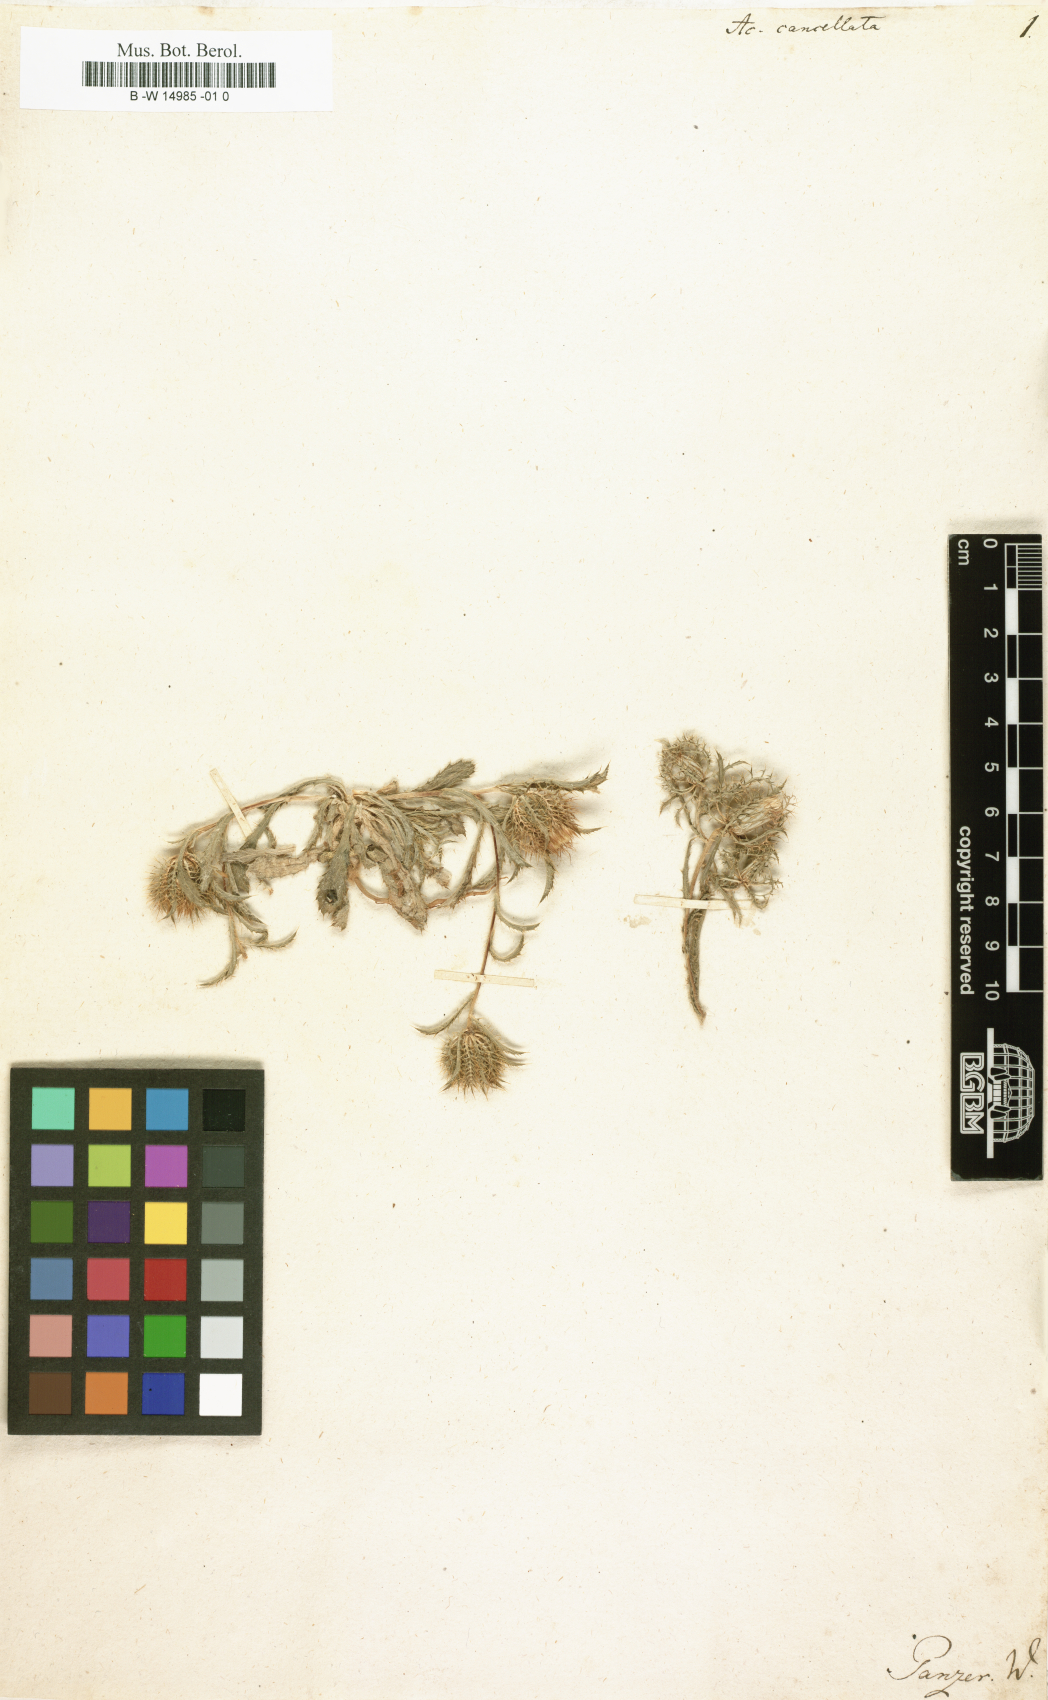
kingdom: Plantae
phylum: Tracheophyta
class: Magnoliopsida
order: Asterales
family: Asteraceae
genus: Atractylis
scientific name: Atractylis cancellata
